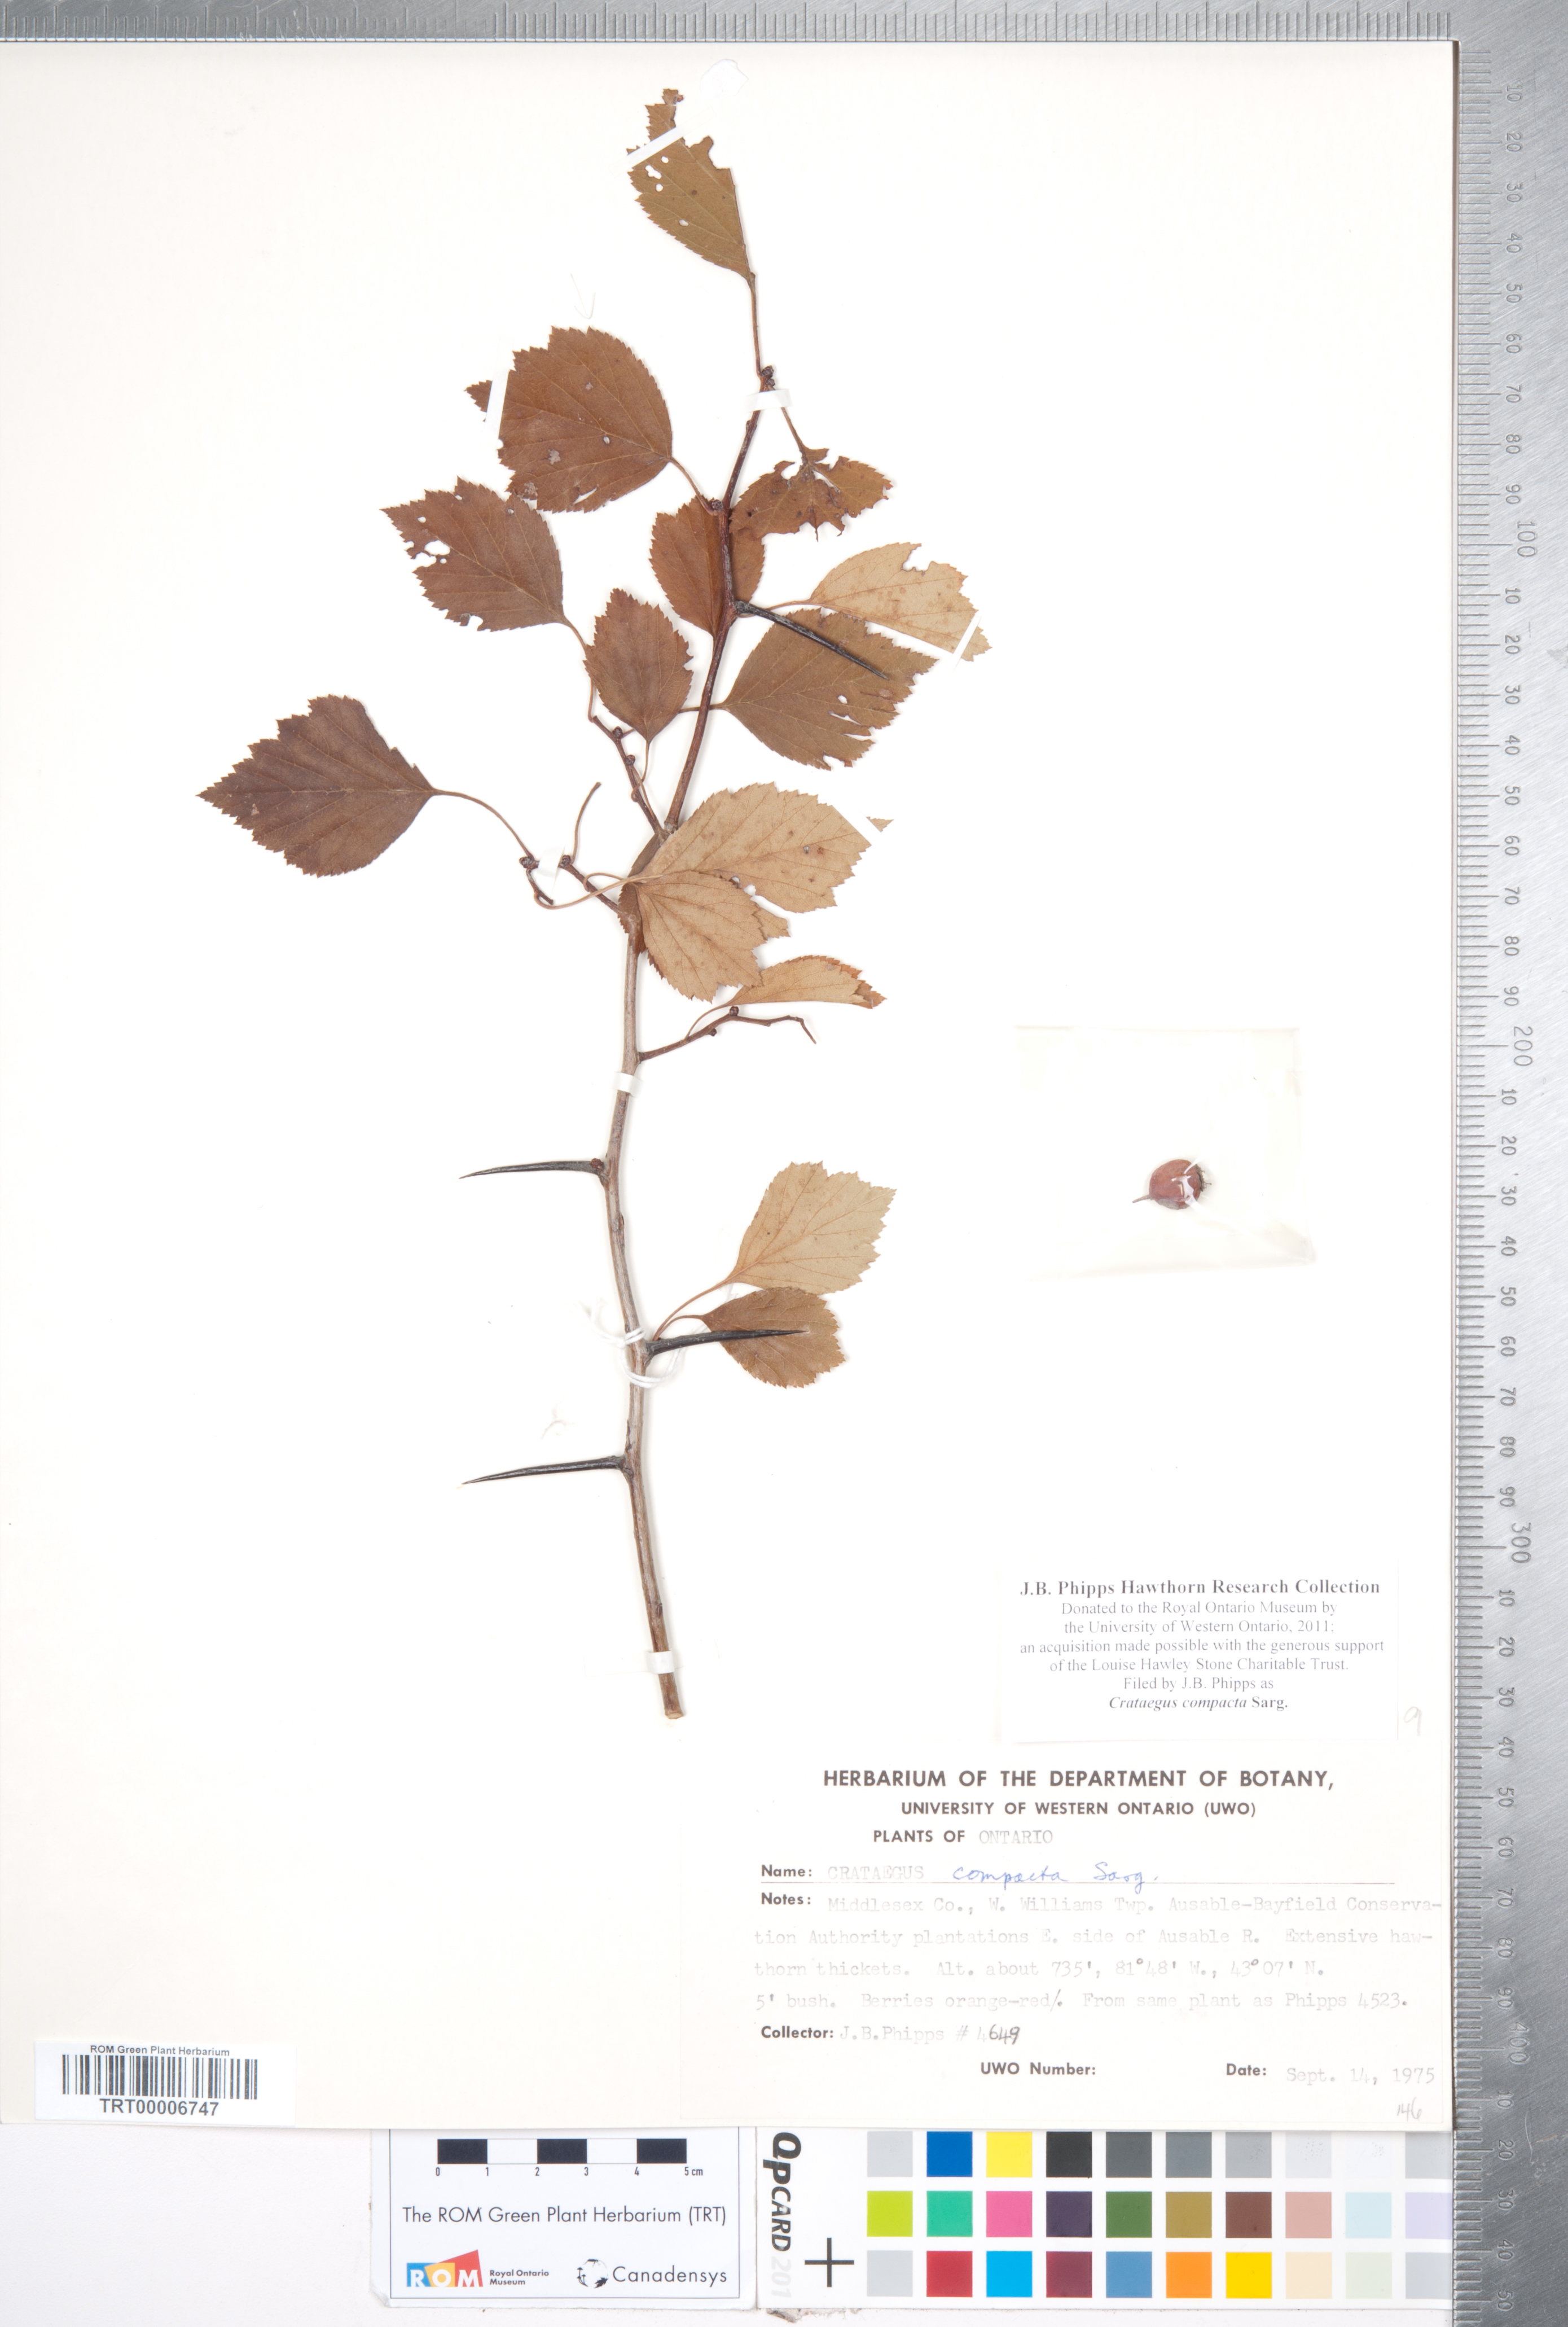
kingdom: Plantae
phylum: Tracheophyta
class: Magnoliopsida
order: Rosales
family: Rosaceae
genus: Crataegus
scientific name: Crataegus compacta
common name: Clustered hawthorn
